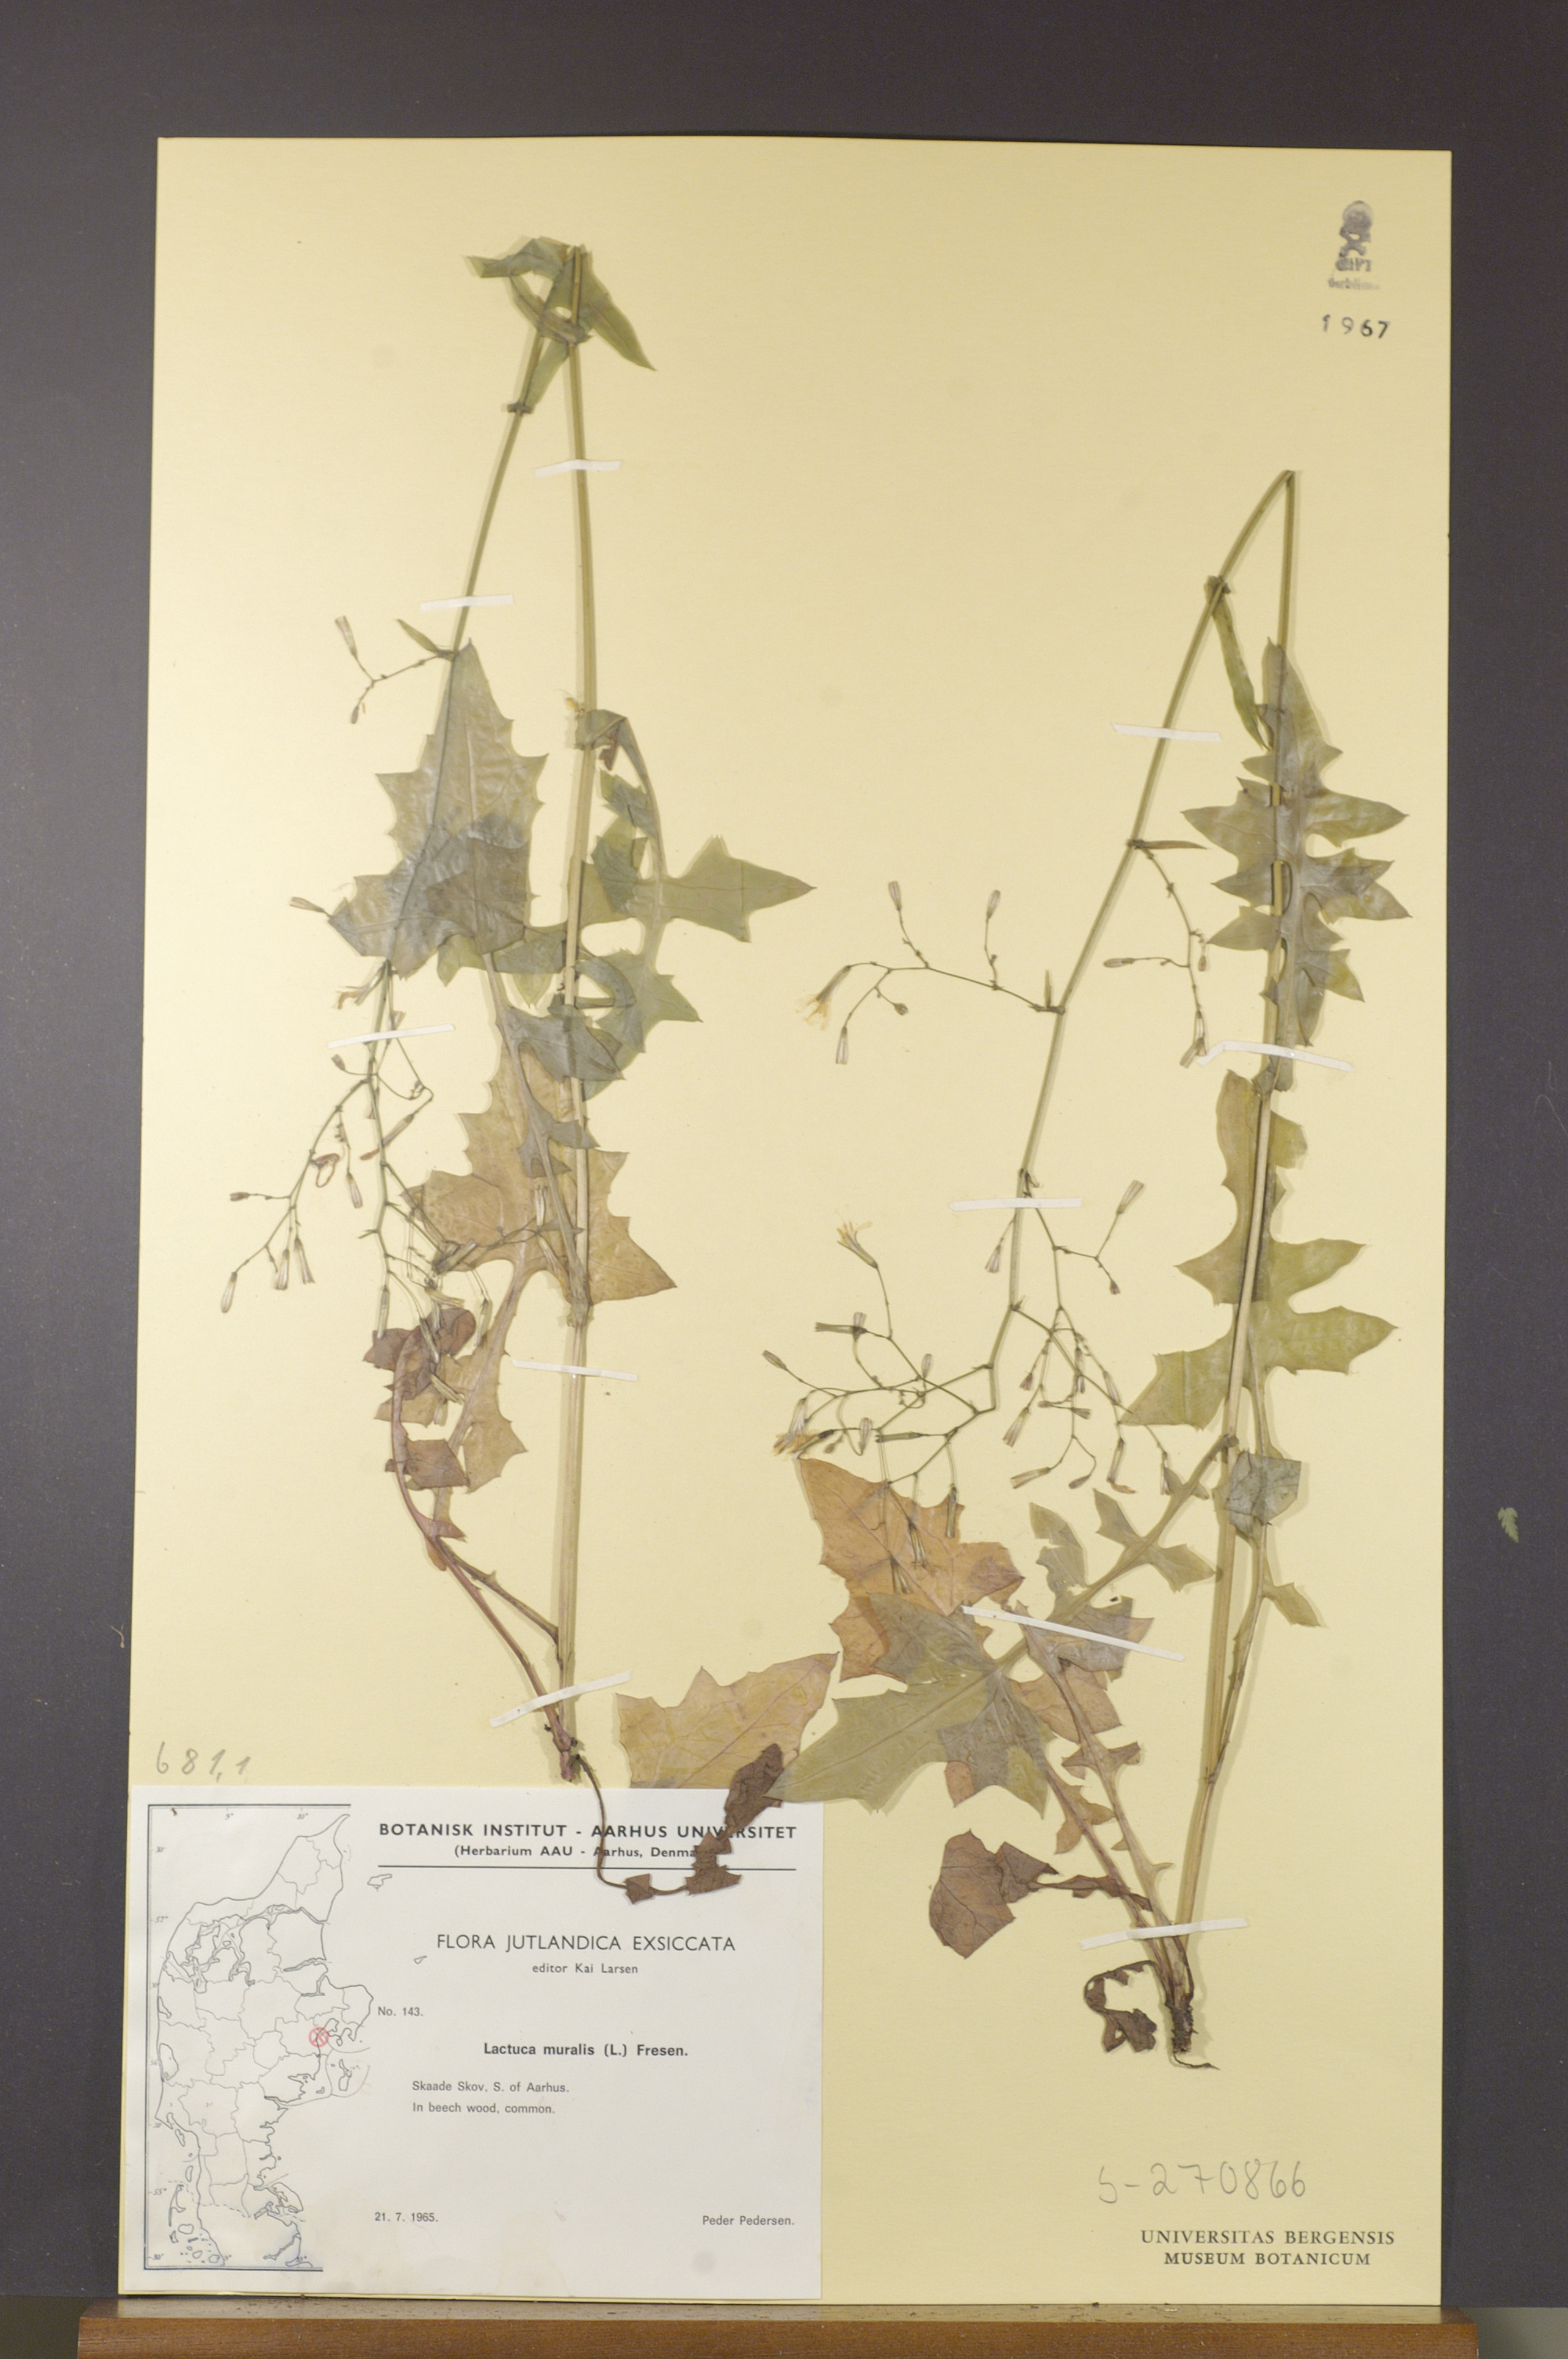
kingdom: Plantae
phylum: Tracheophyta
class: Magnoliopsida
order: Asterales
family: Asteraceae
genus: Mycelis
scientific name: Mycelis muralis
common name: Wall lettuce
